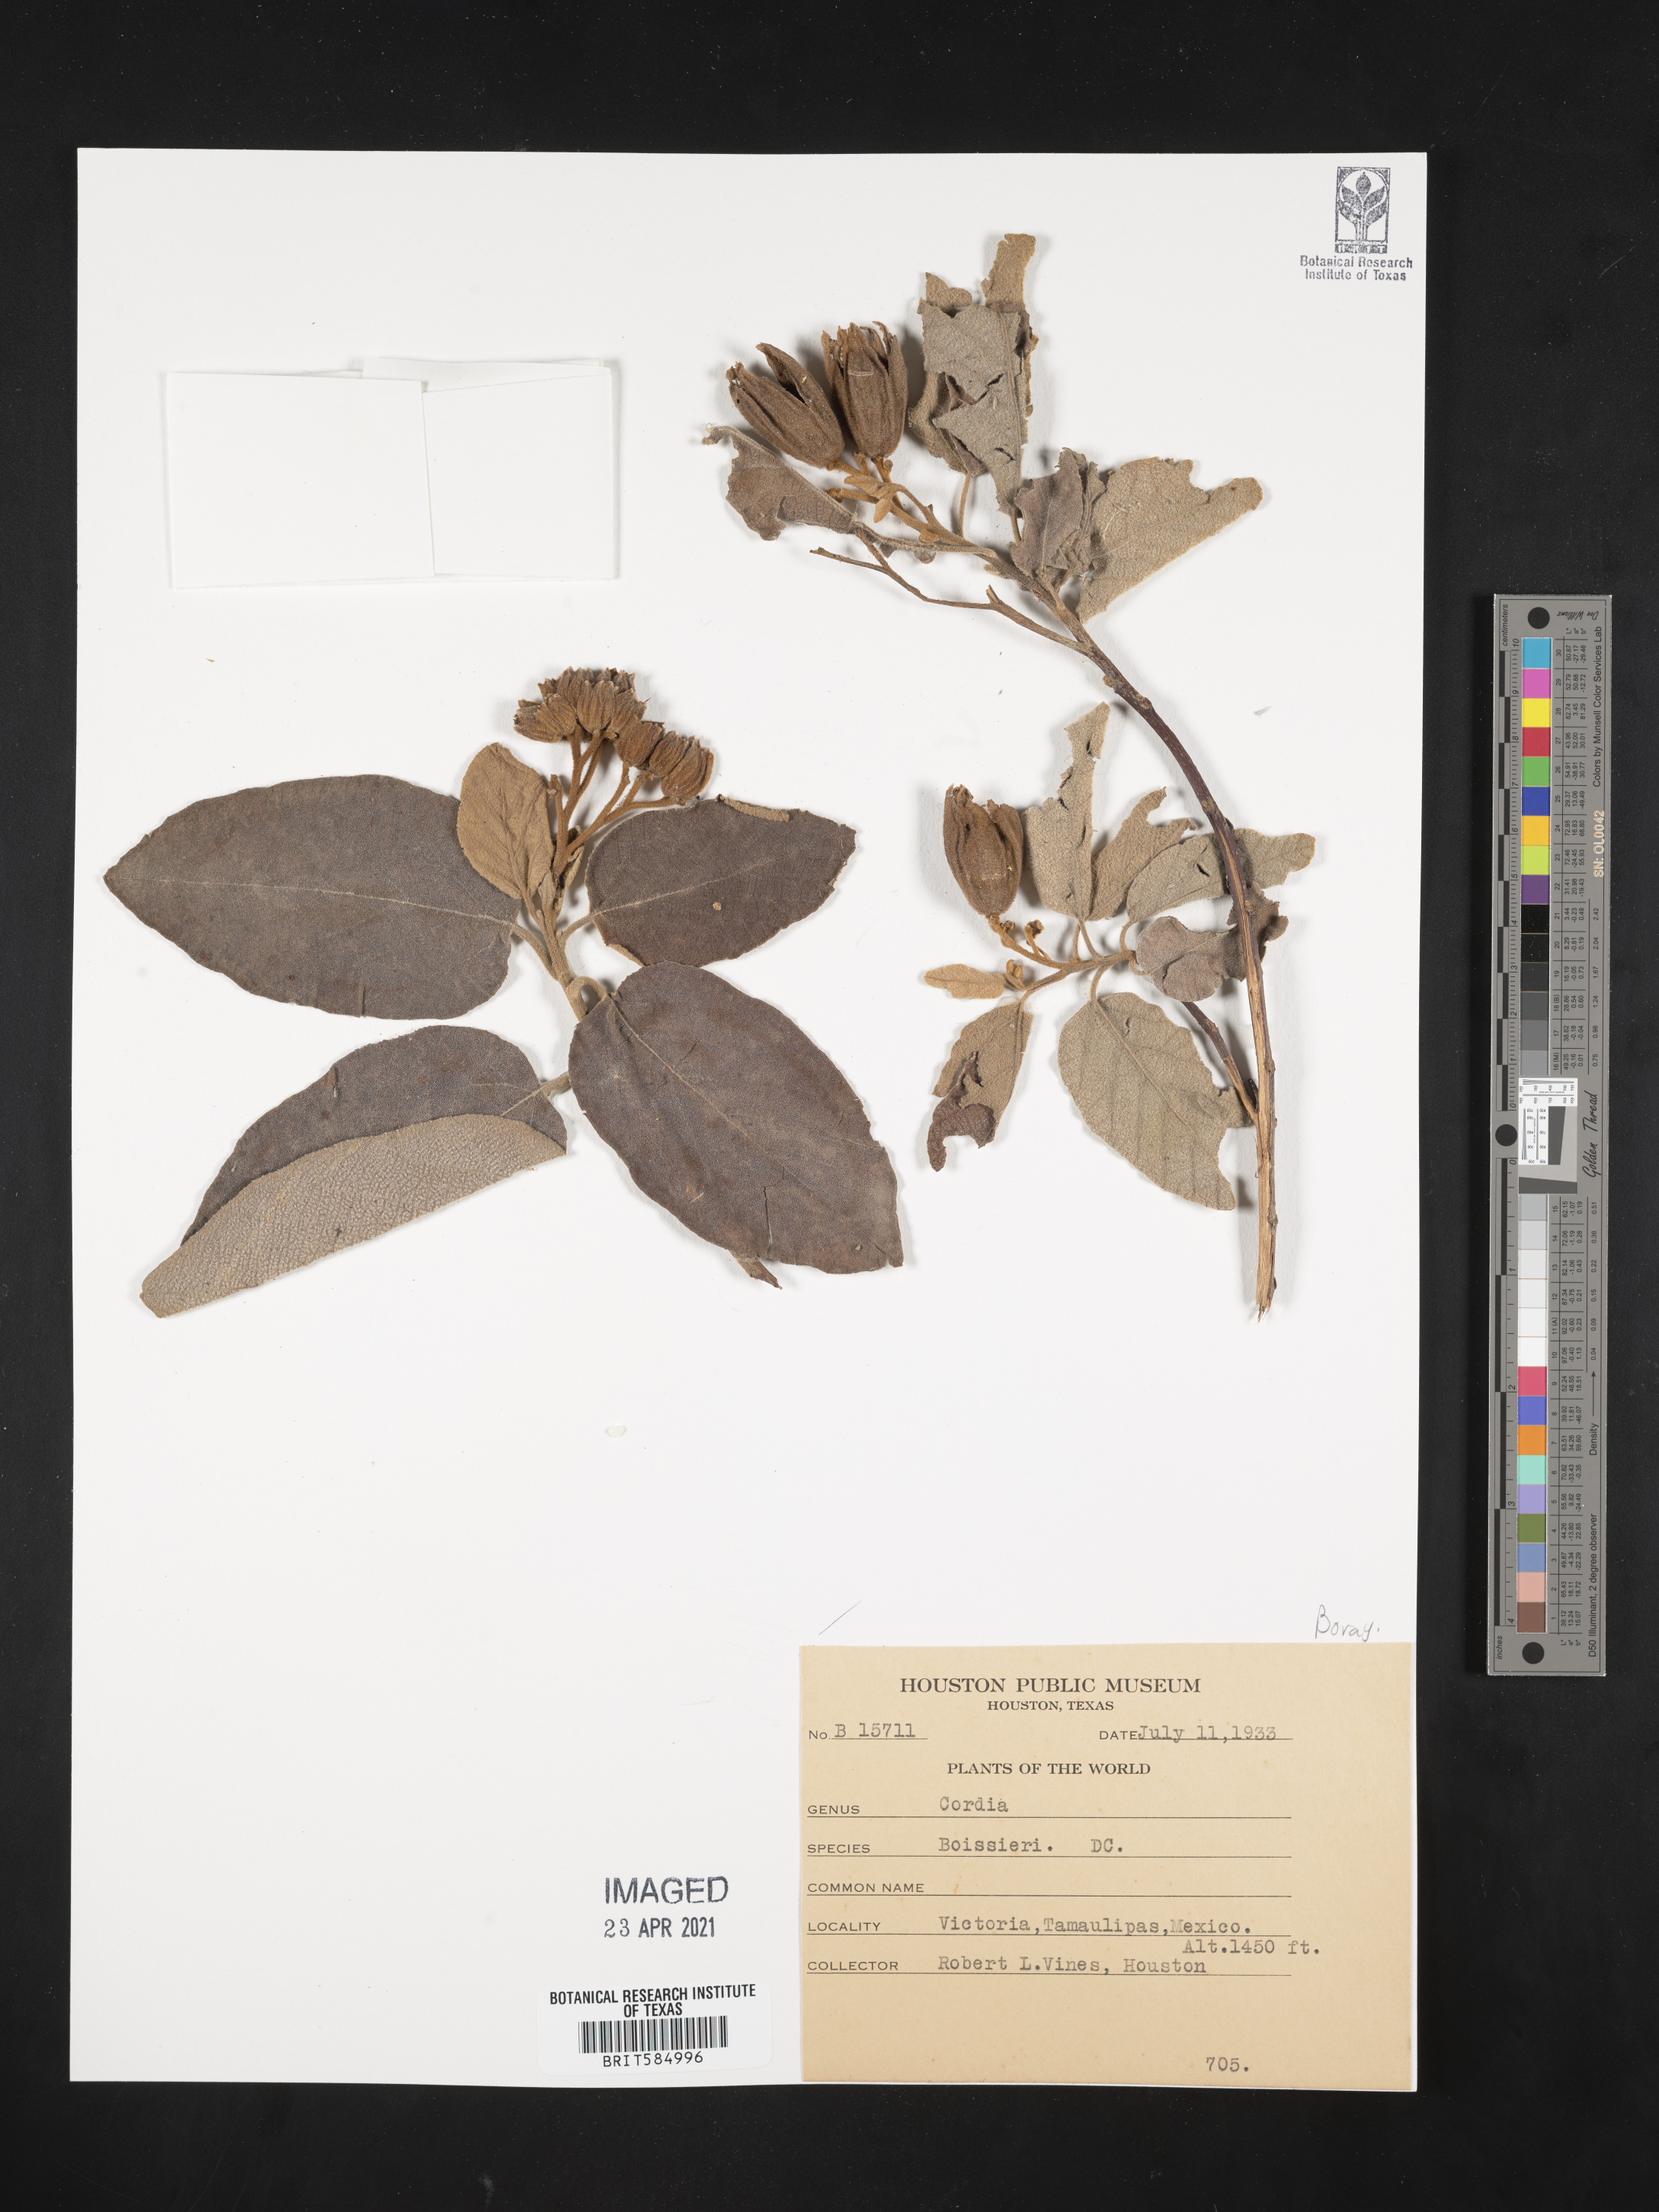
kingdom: Plantae
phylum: Tracheophyta
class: Magnoliopsida
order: Boraginales
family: Cordiaceae
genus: Cordia
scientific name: Cordia boissieri
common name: Mexican-olive
